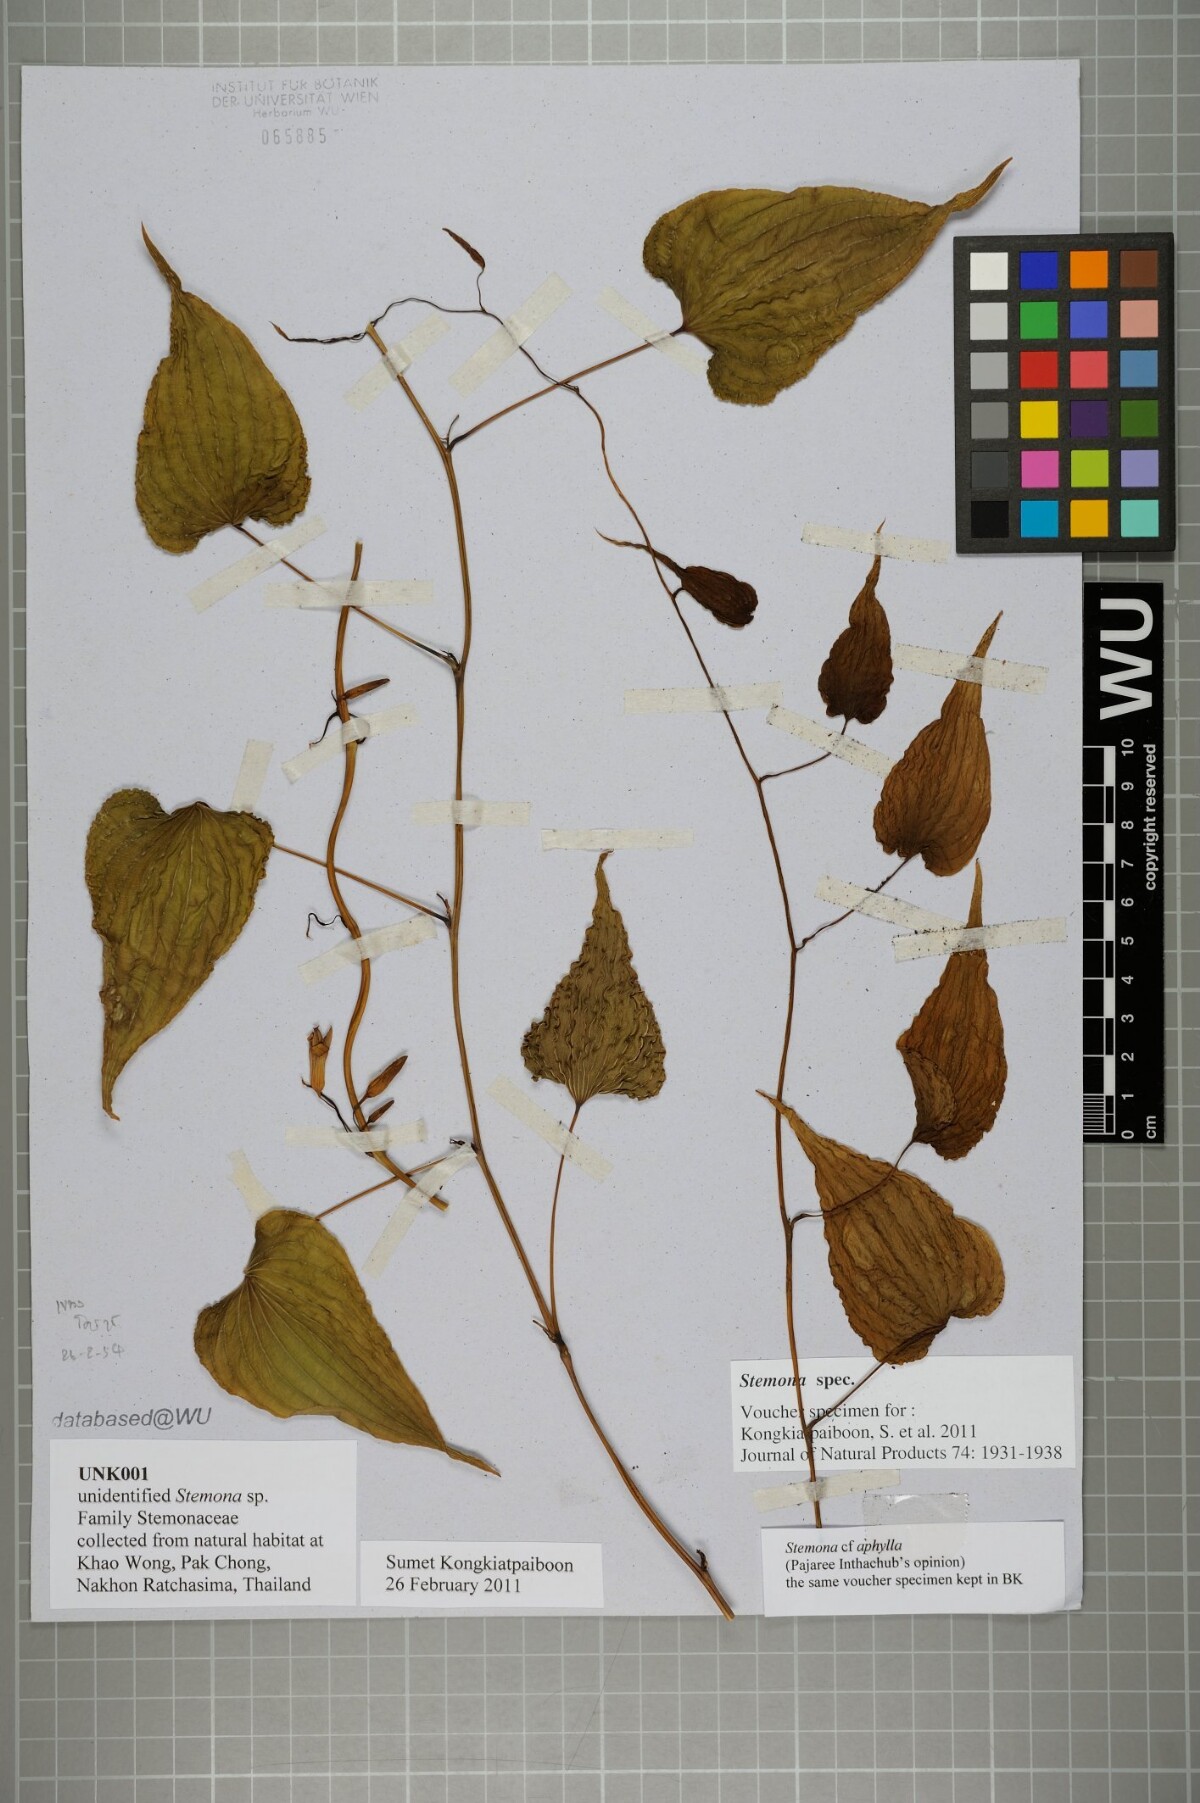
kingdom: Plantae
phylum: Tracheophyta
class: Liliopsida
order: Pandanales
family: Stemonaceae
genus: Stemona
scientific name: Stemona
